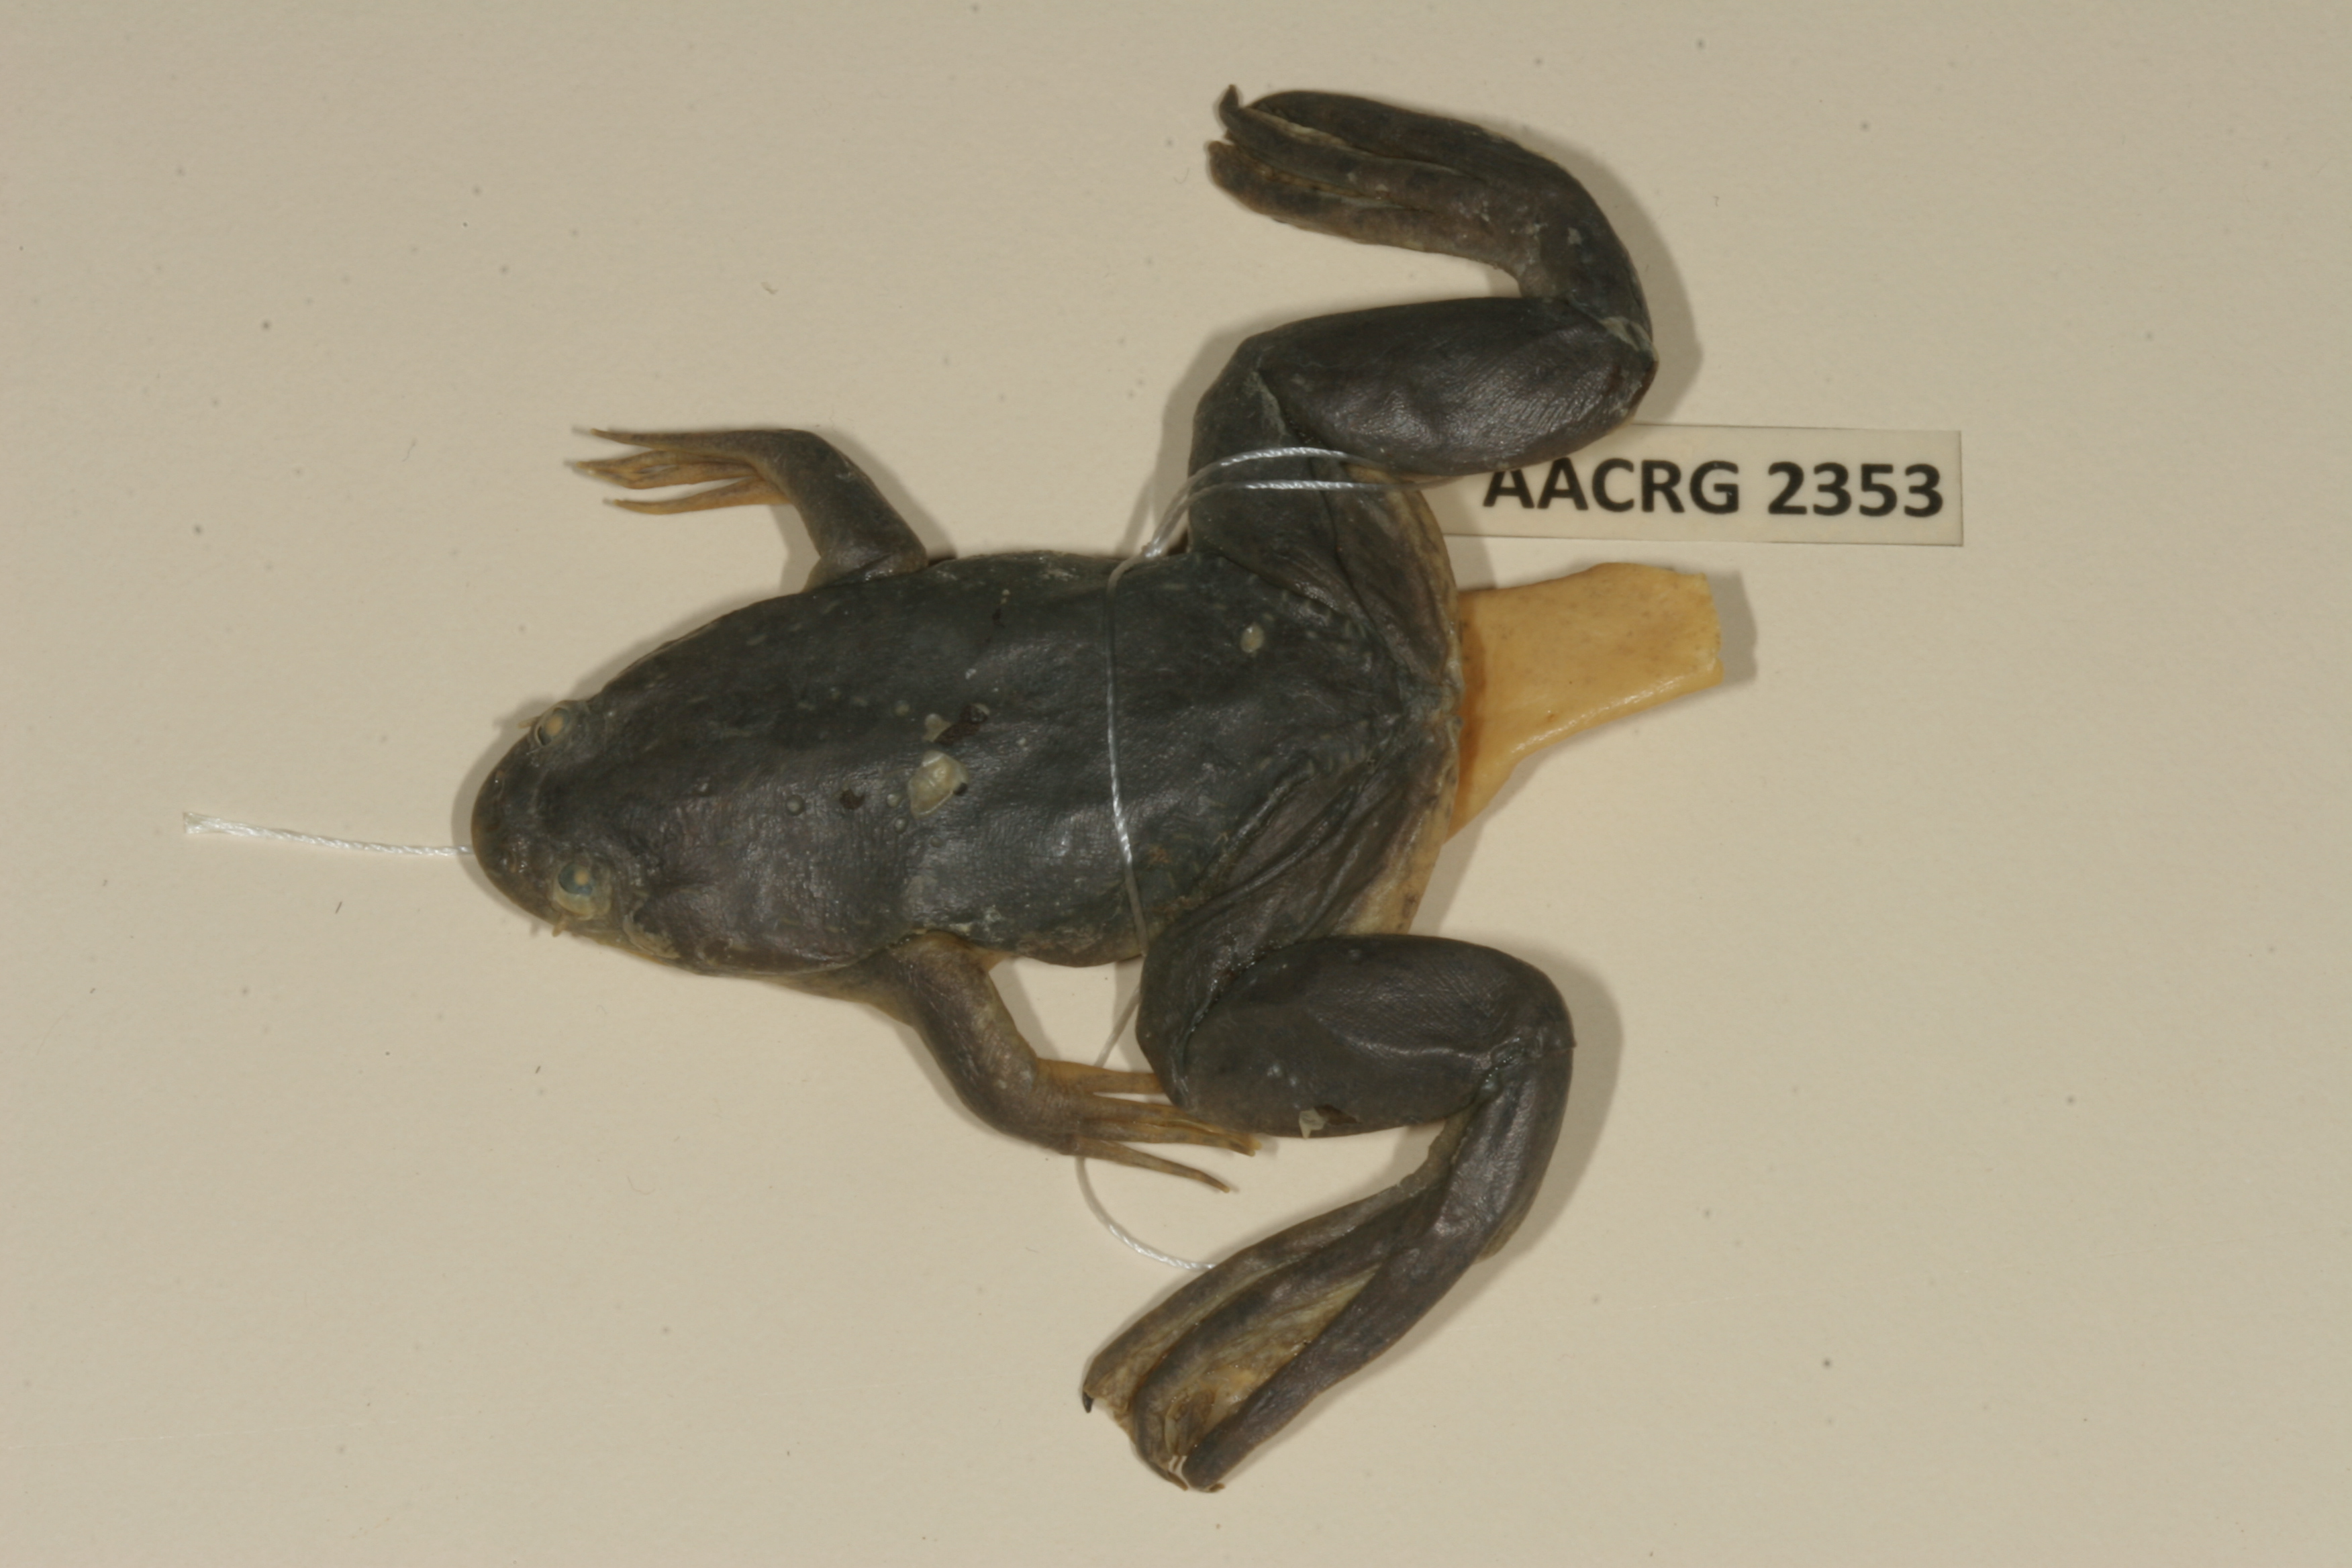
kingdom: Animalia
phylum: Chordata
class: Amphibia
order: Anura
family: Pipidae
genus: Xenopus
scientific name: Xenopus muelleri
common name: Muller's clawed frog
